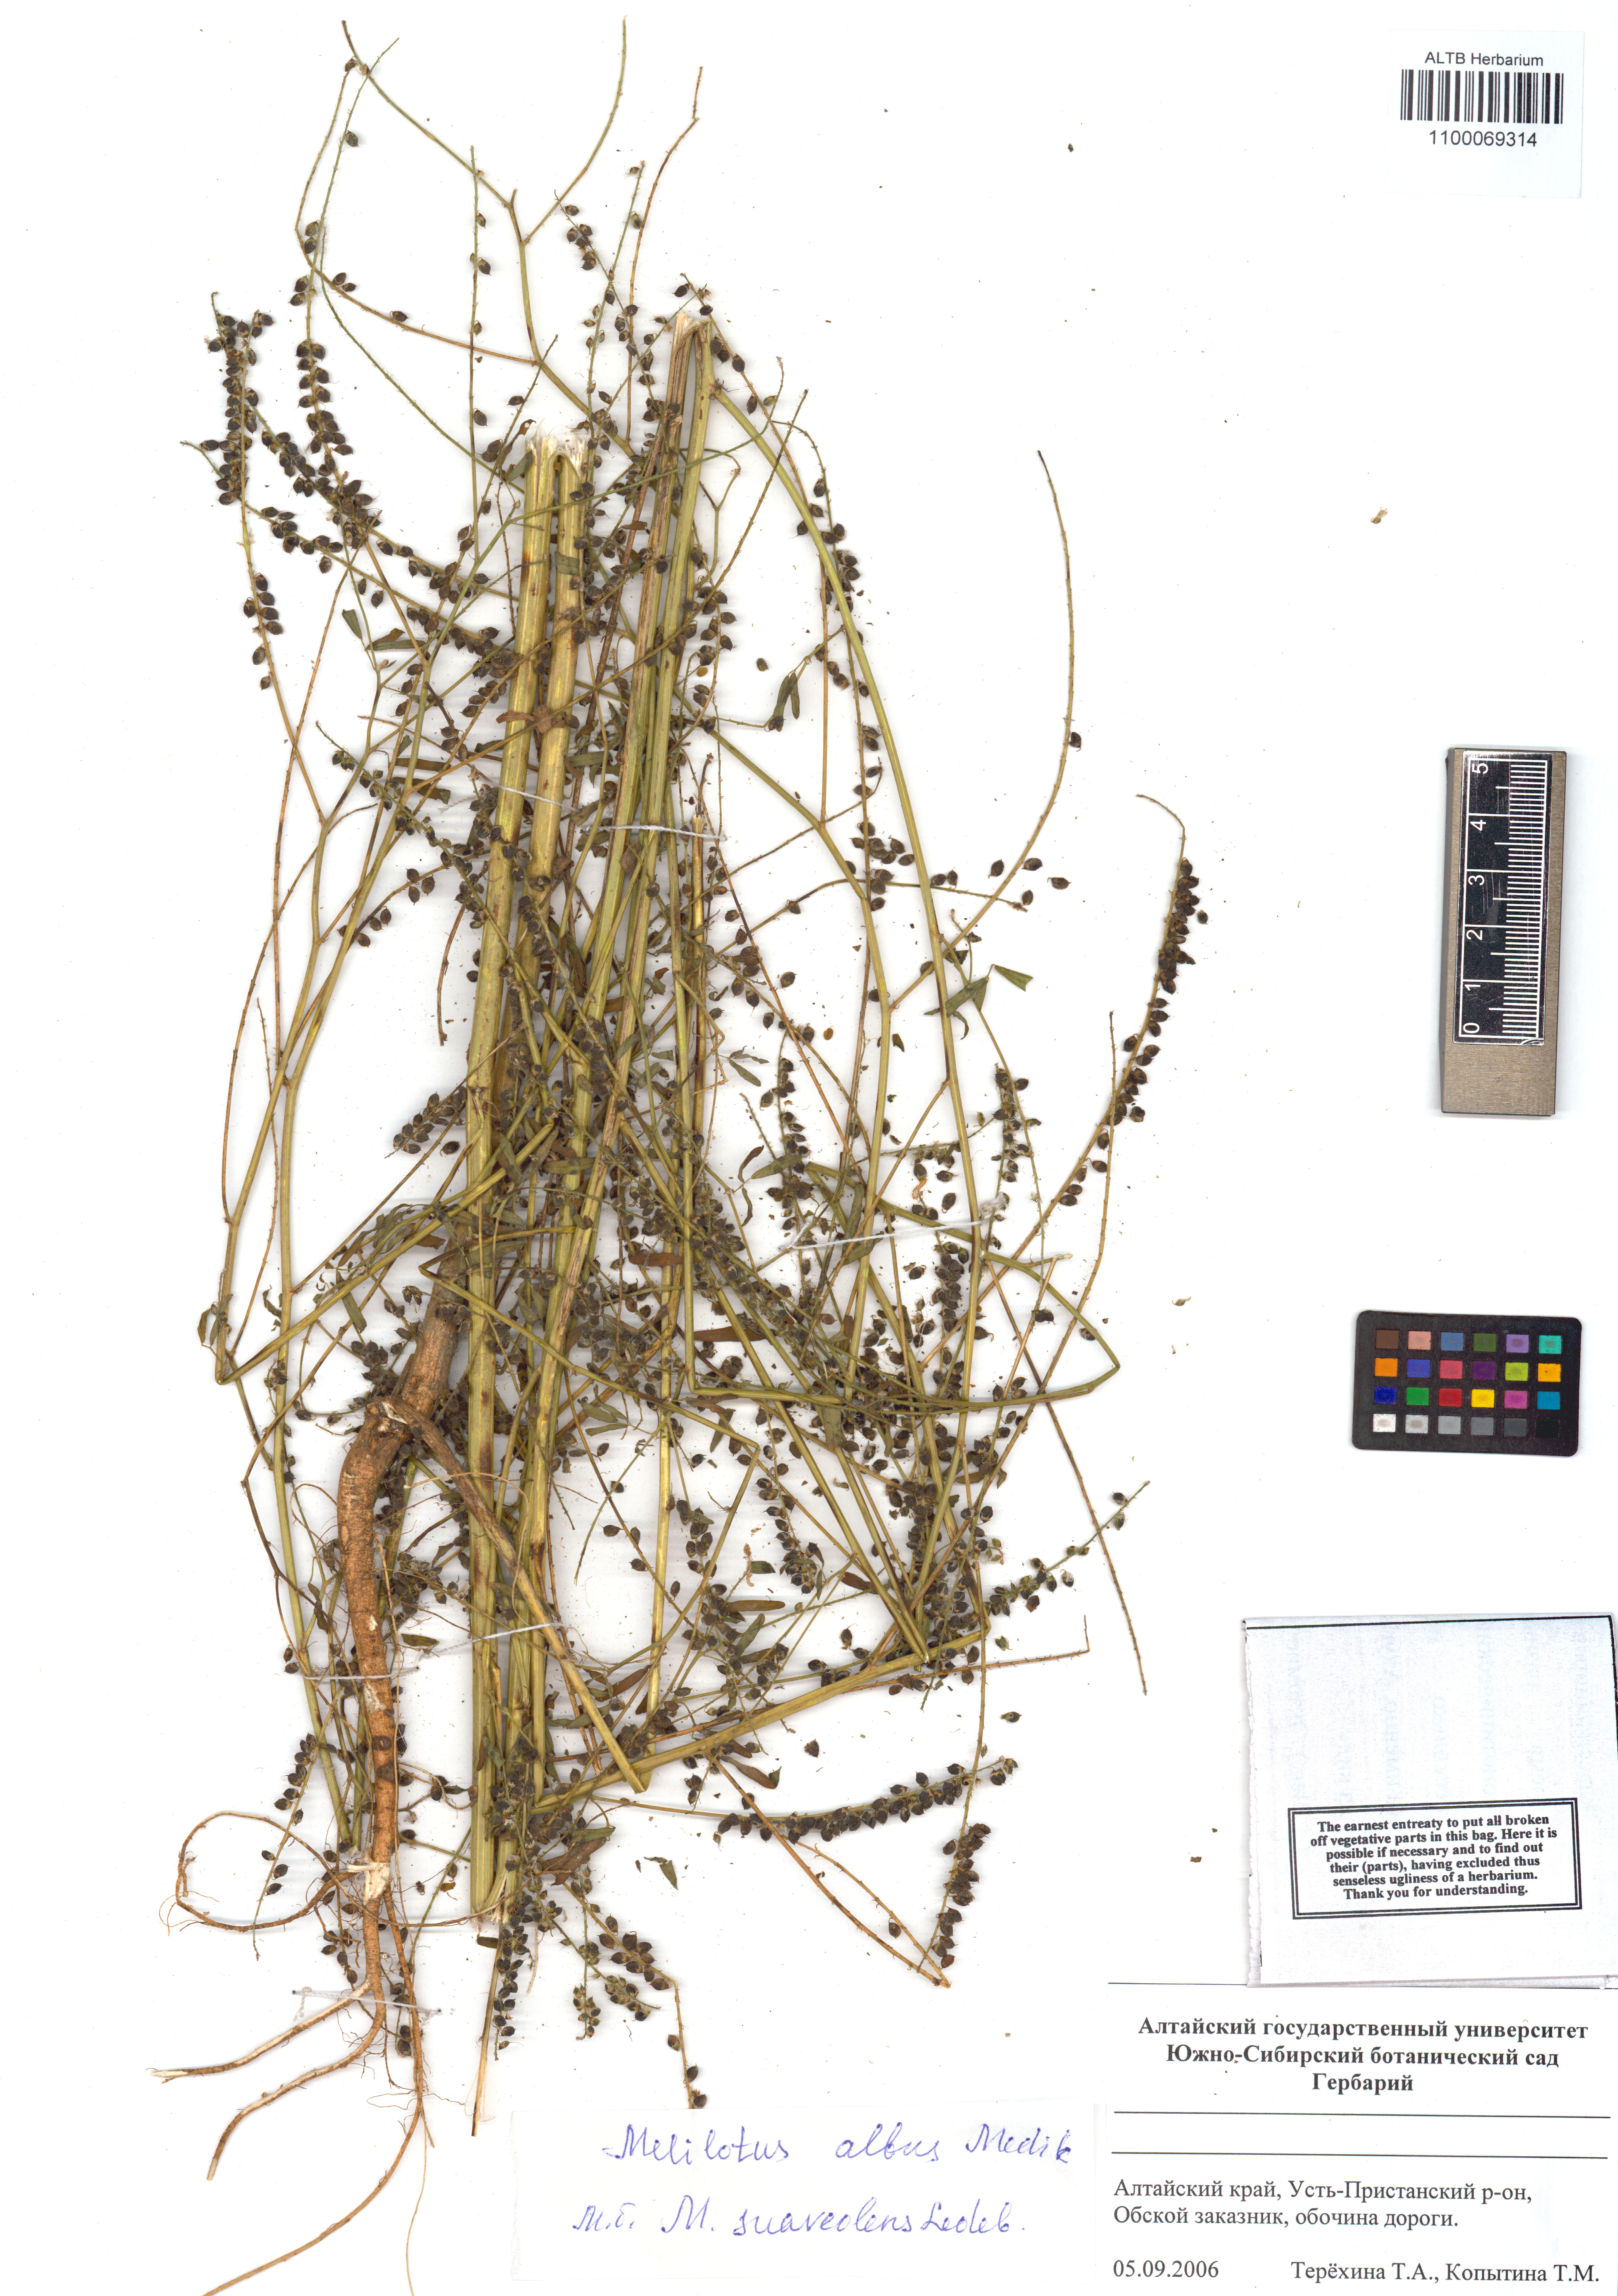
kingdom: Plantae
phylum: Tracheophyta
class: Magnoliopsida
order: Fabales
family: Fabaceae
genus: Melilotus
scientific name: Melilotus albus
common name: White melilot
